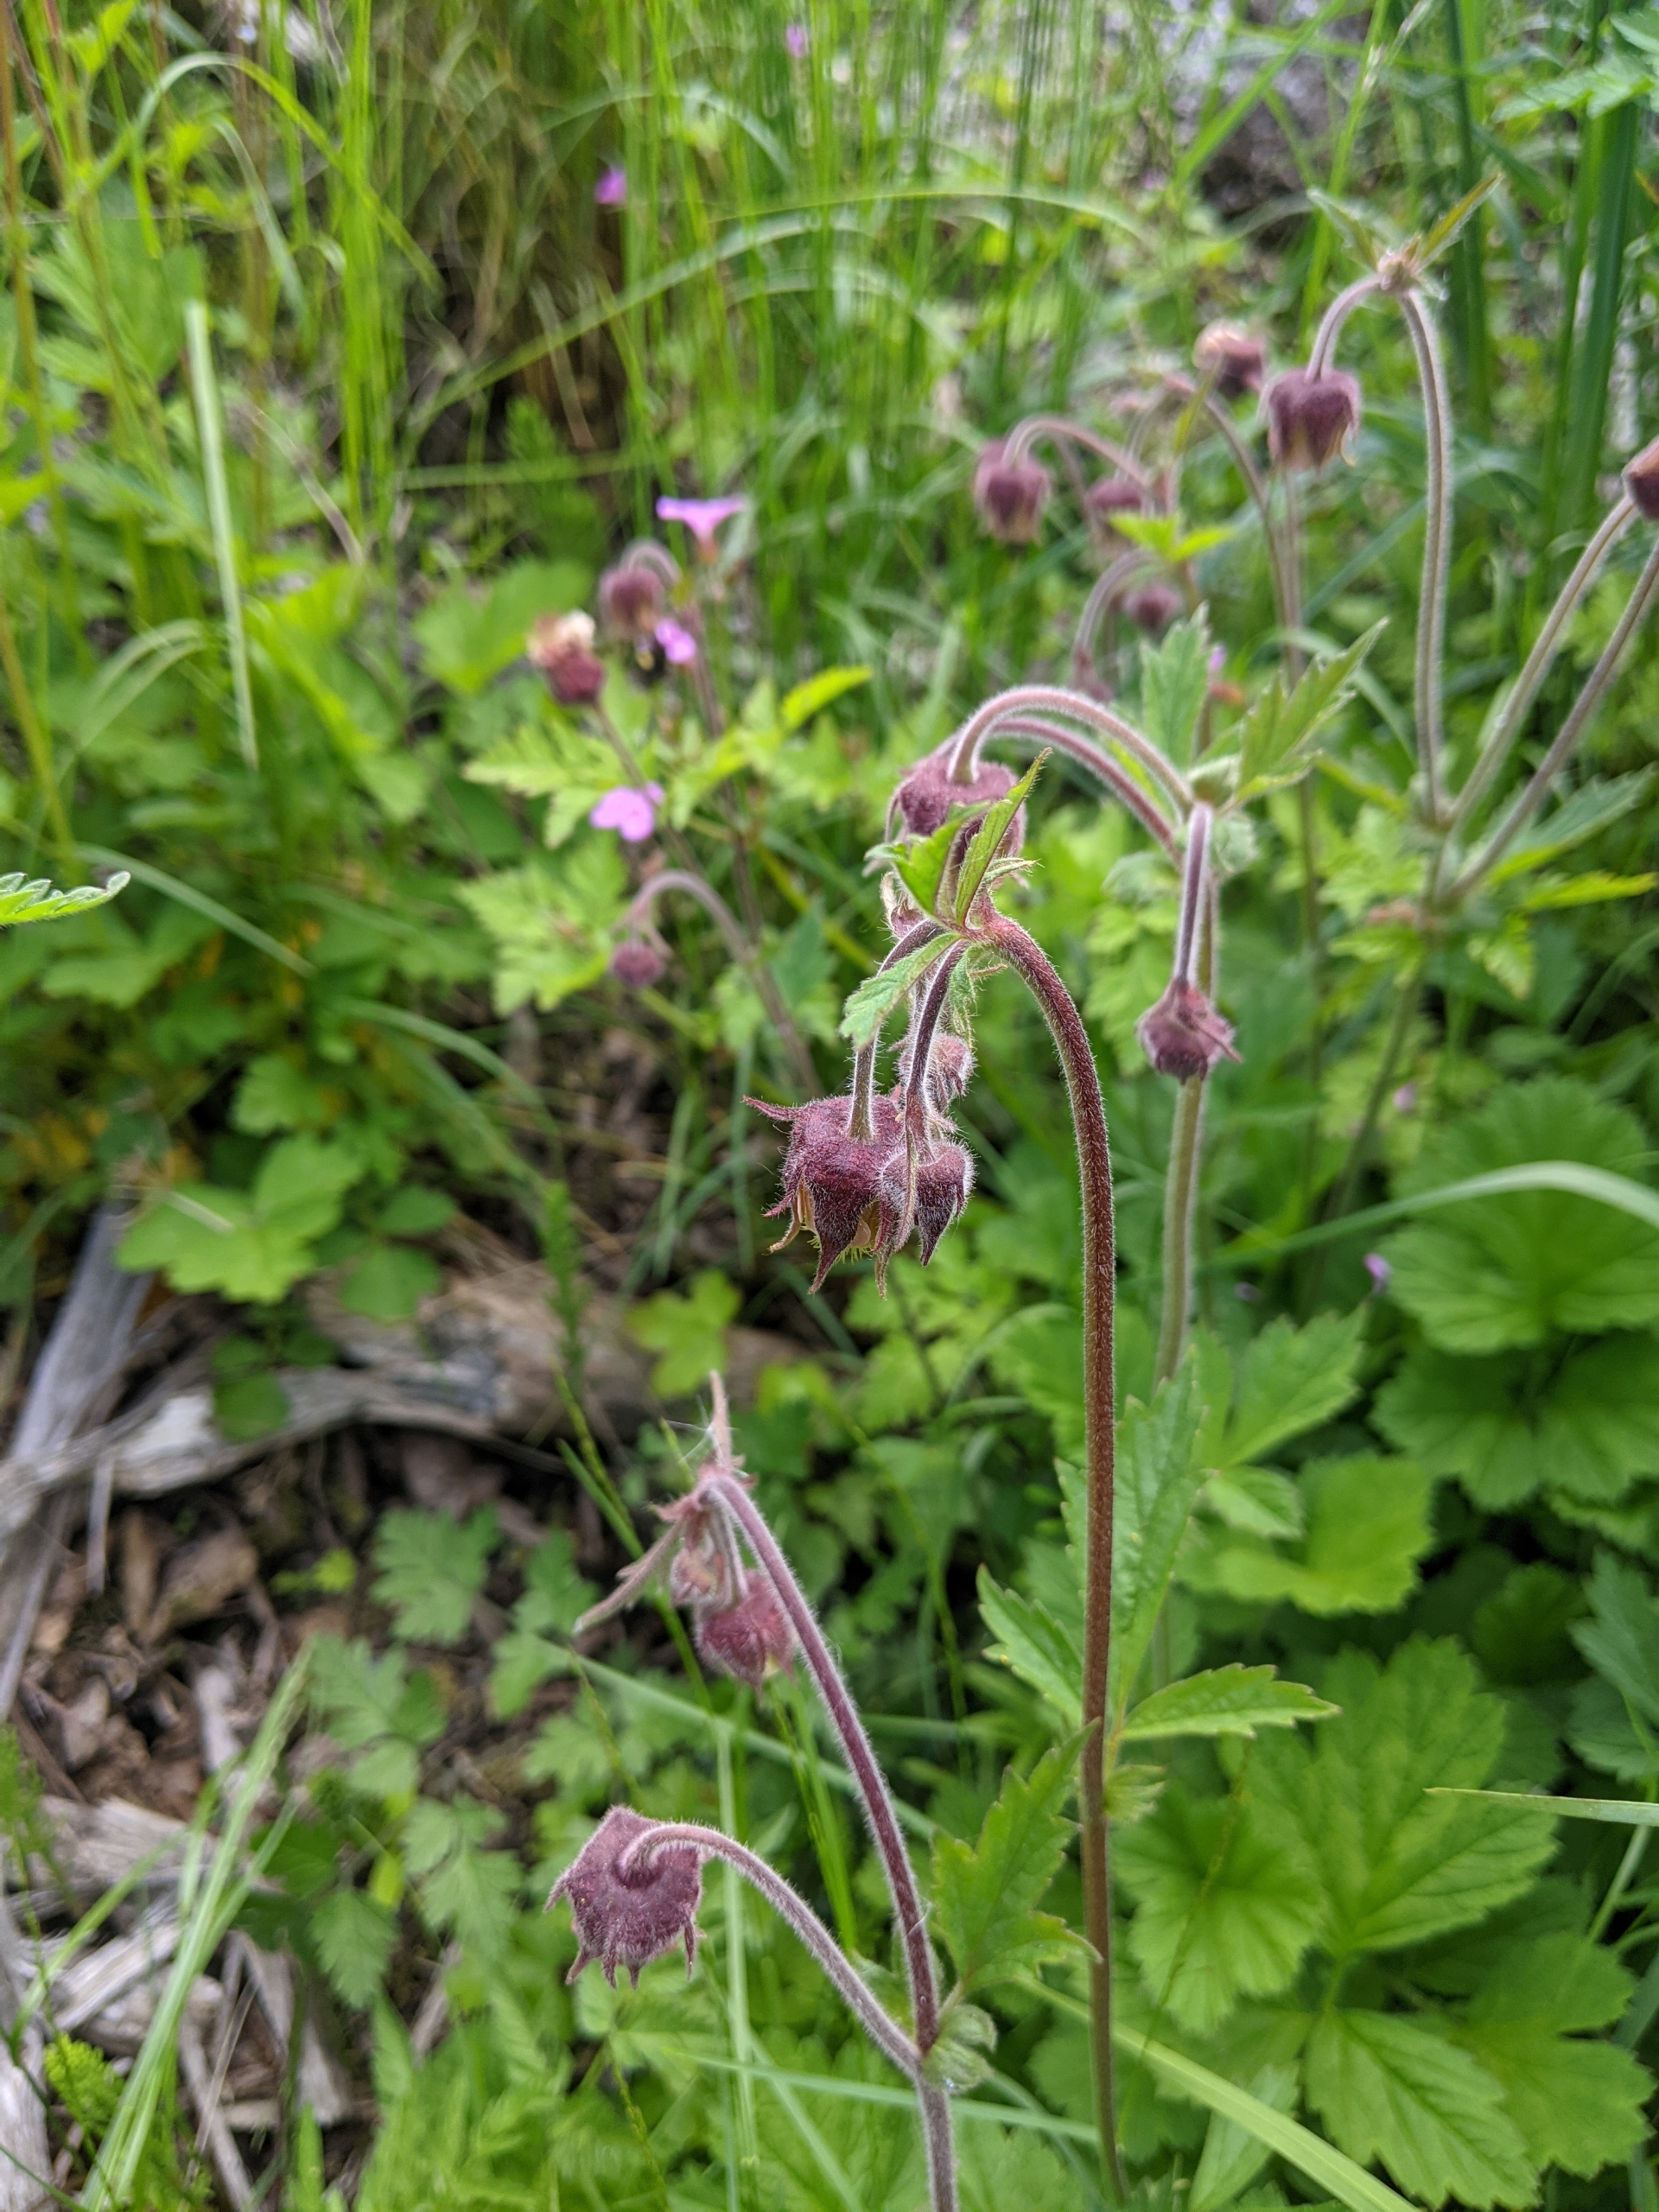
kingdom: Plantae
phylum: Tracheophyta
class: Magnoliopsida
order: Rosales
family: Rosaceae
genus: Geum
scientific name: Geum rivale
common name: Eng-nellikerod
